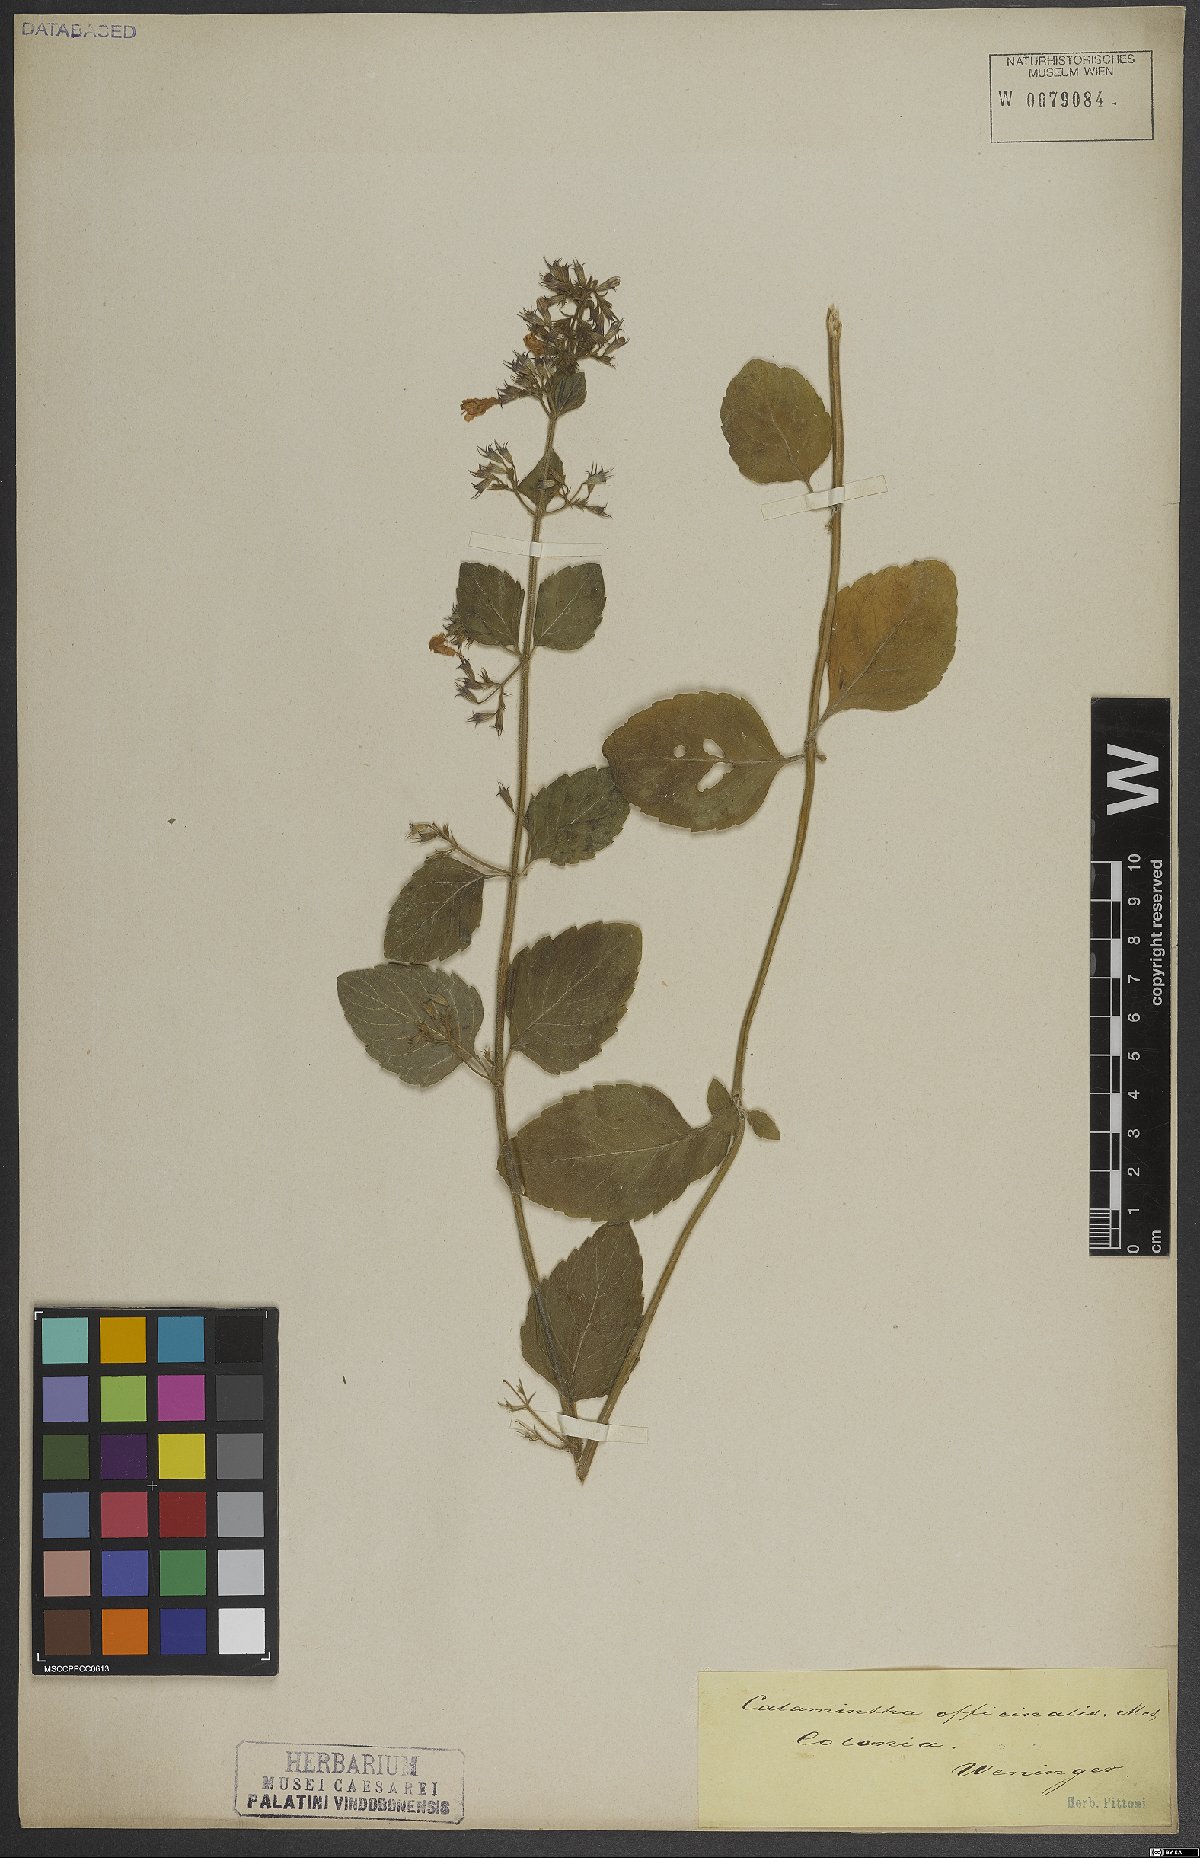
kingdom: Plantae
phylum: Tracheophyta
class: Magnoliopsida
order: Lamiales
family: Lamiaceae
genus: Clinopodium
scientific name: Clinopodium nepeta
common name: Lesser calamint
